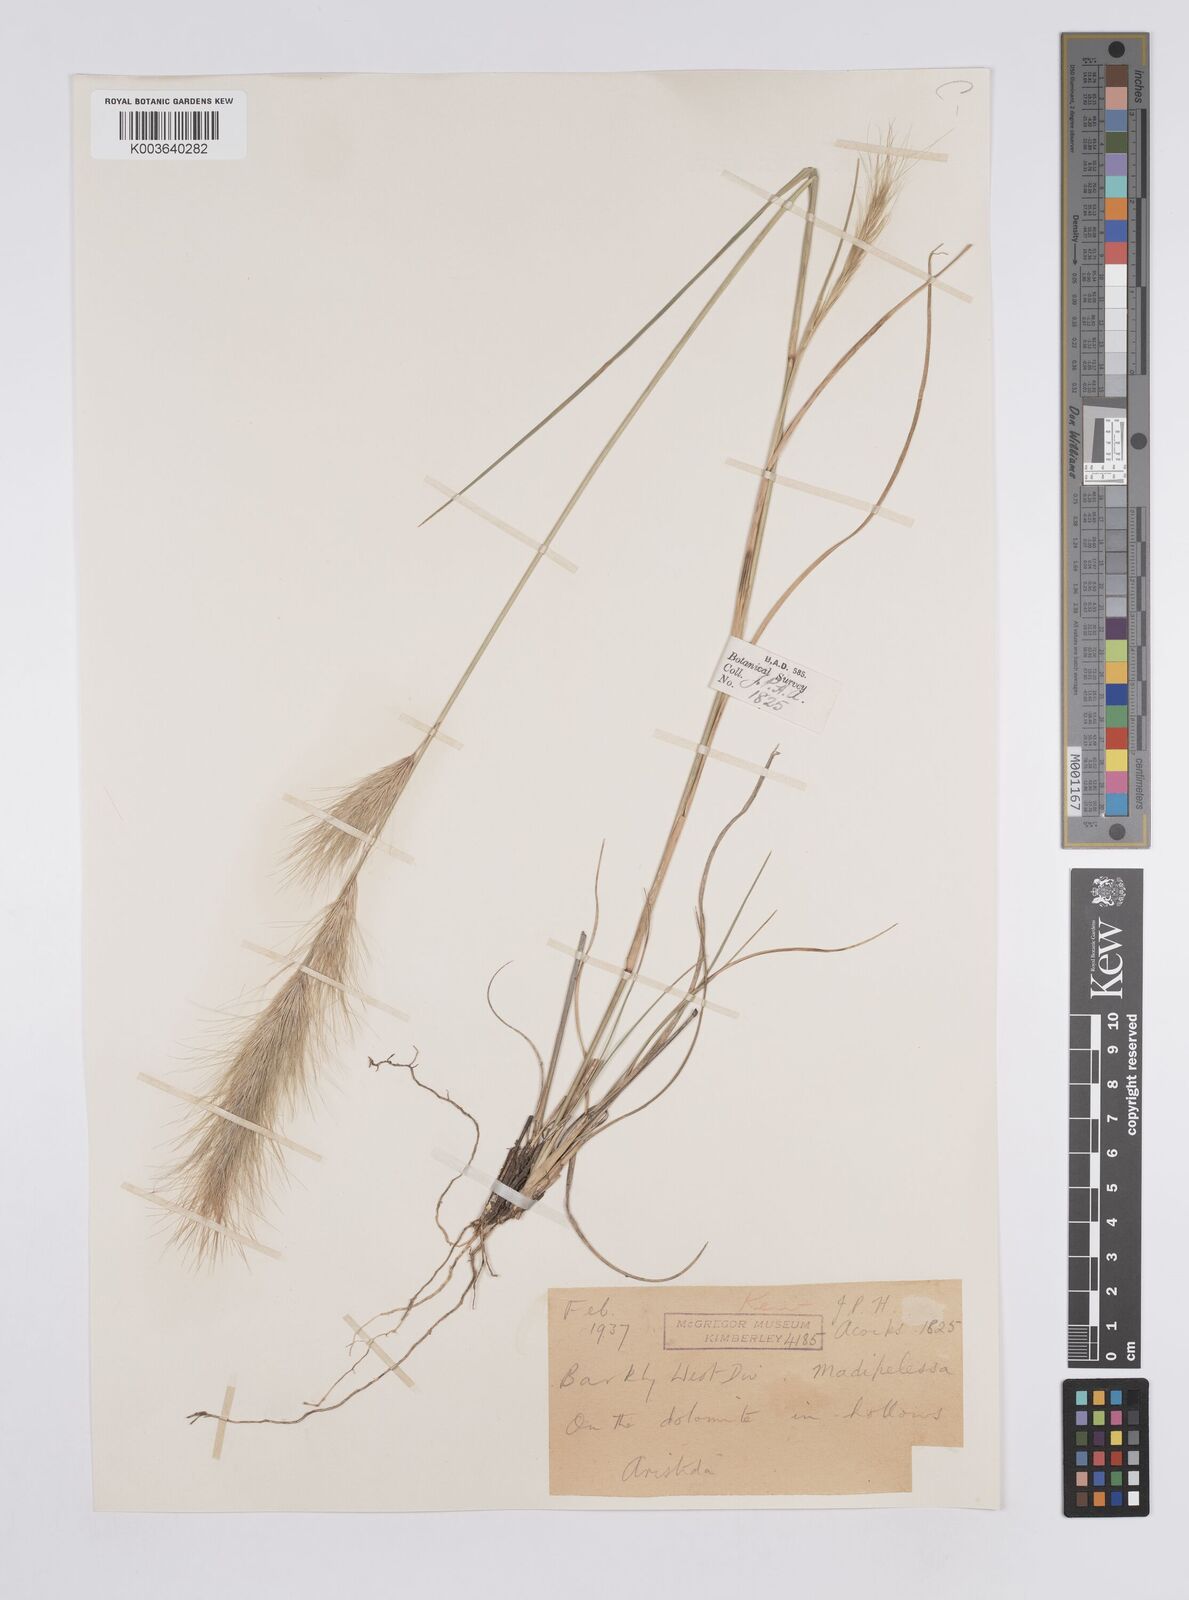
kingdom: Plantae
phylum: Tracheophyta
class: Liliopsida
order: Poales
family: Poaceae
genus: Aristida
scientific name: Aristida congesta
